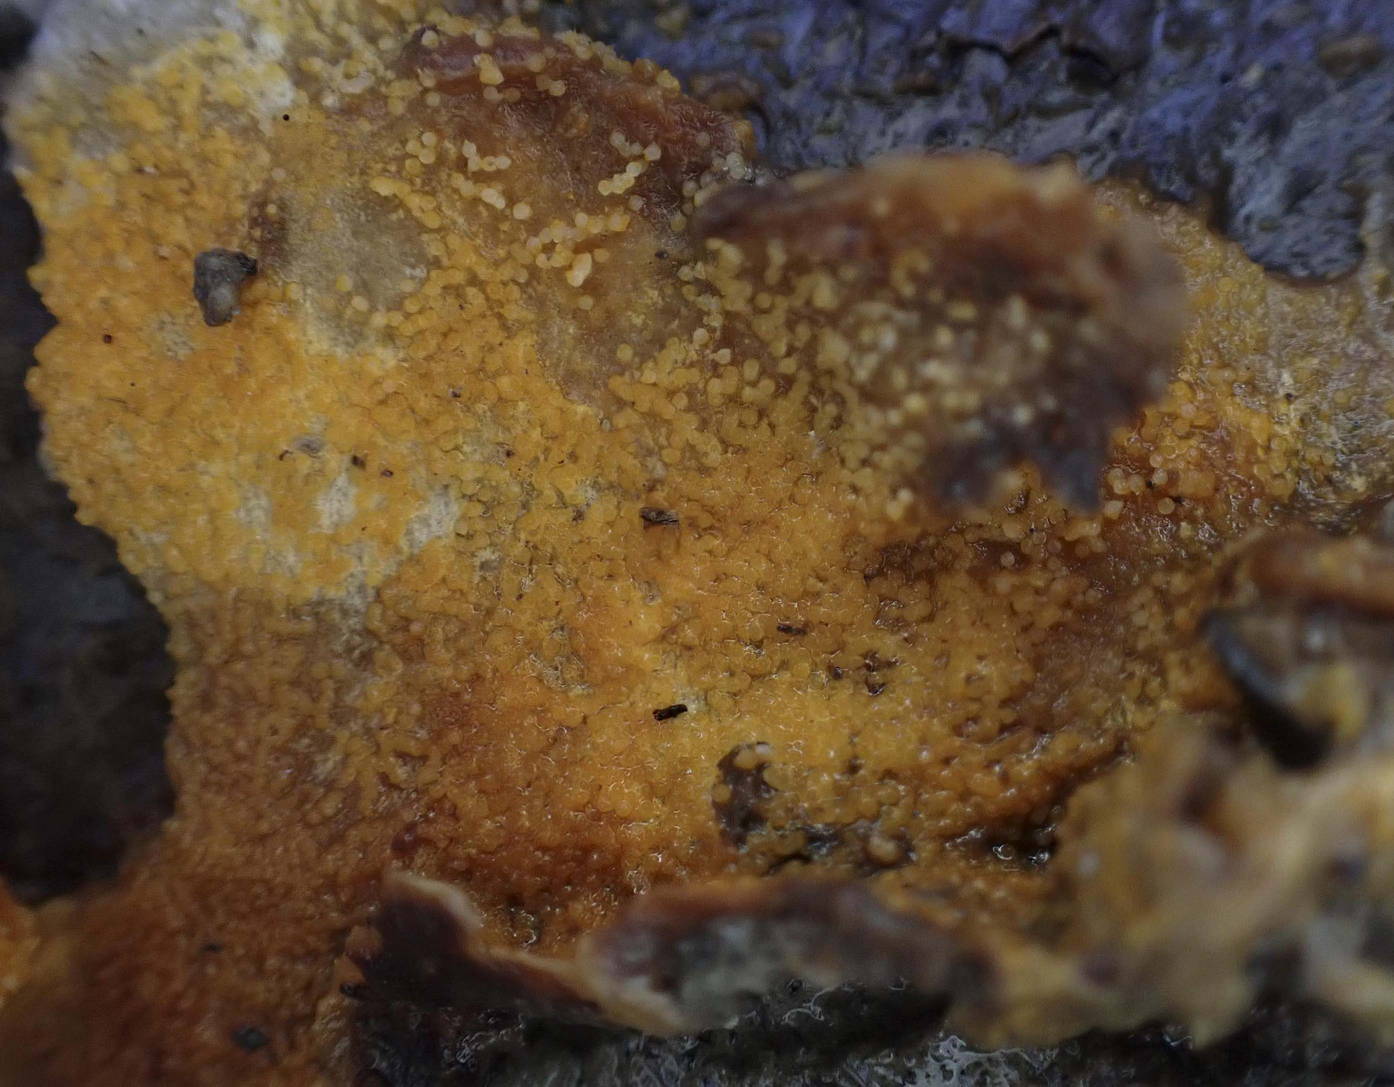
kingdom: Fungi
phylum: Ascomycota
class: Sordariomycetes
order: Hypocreales
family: Hypocreaceae
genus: Hypomyces
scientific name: Hypomyces aurantius
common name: almindelig snylteskorpe
